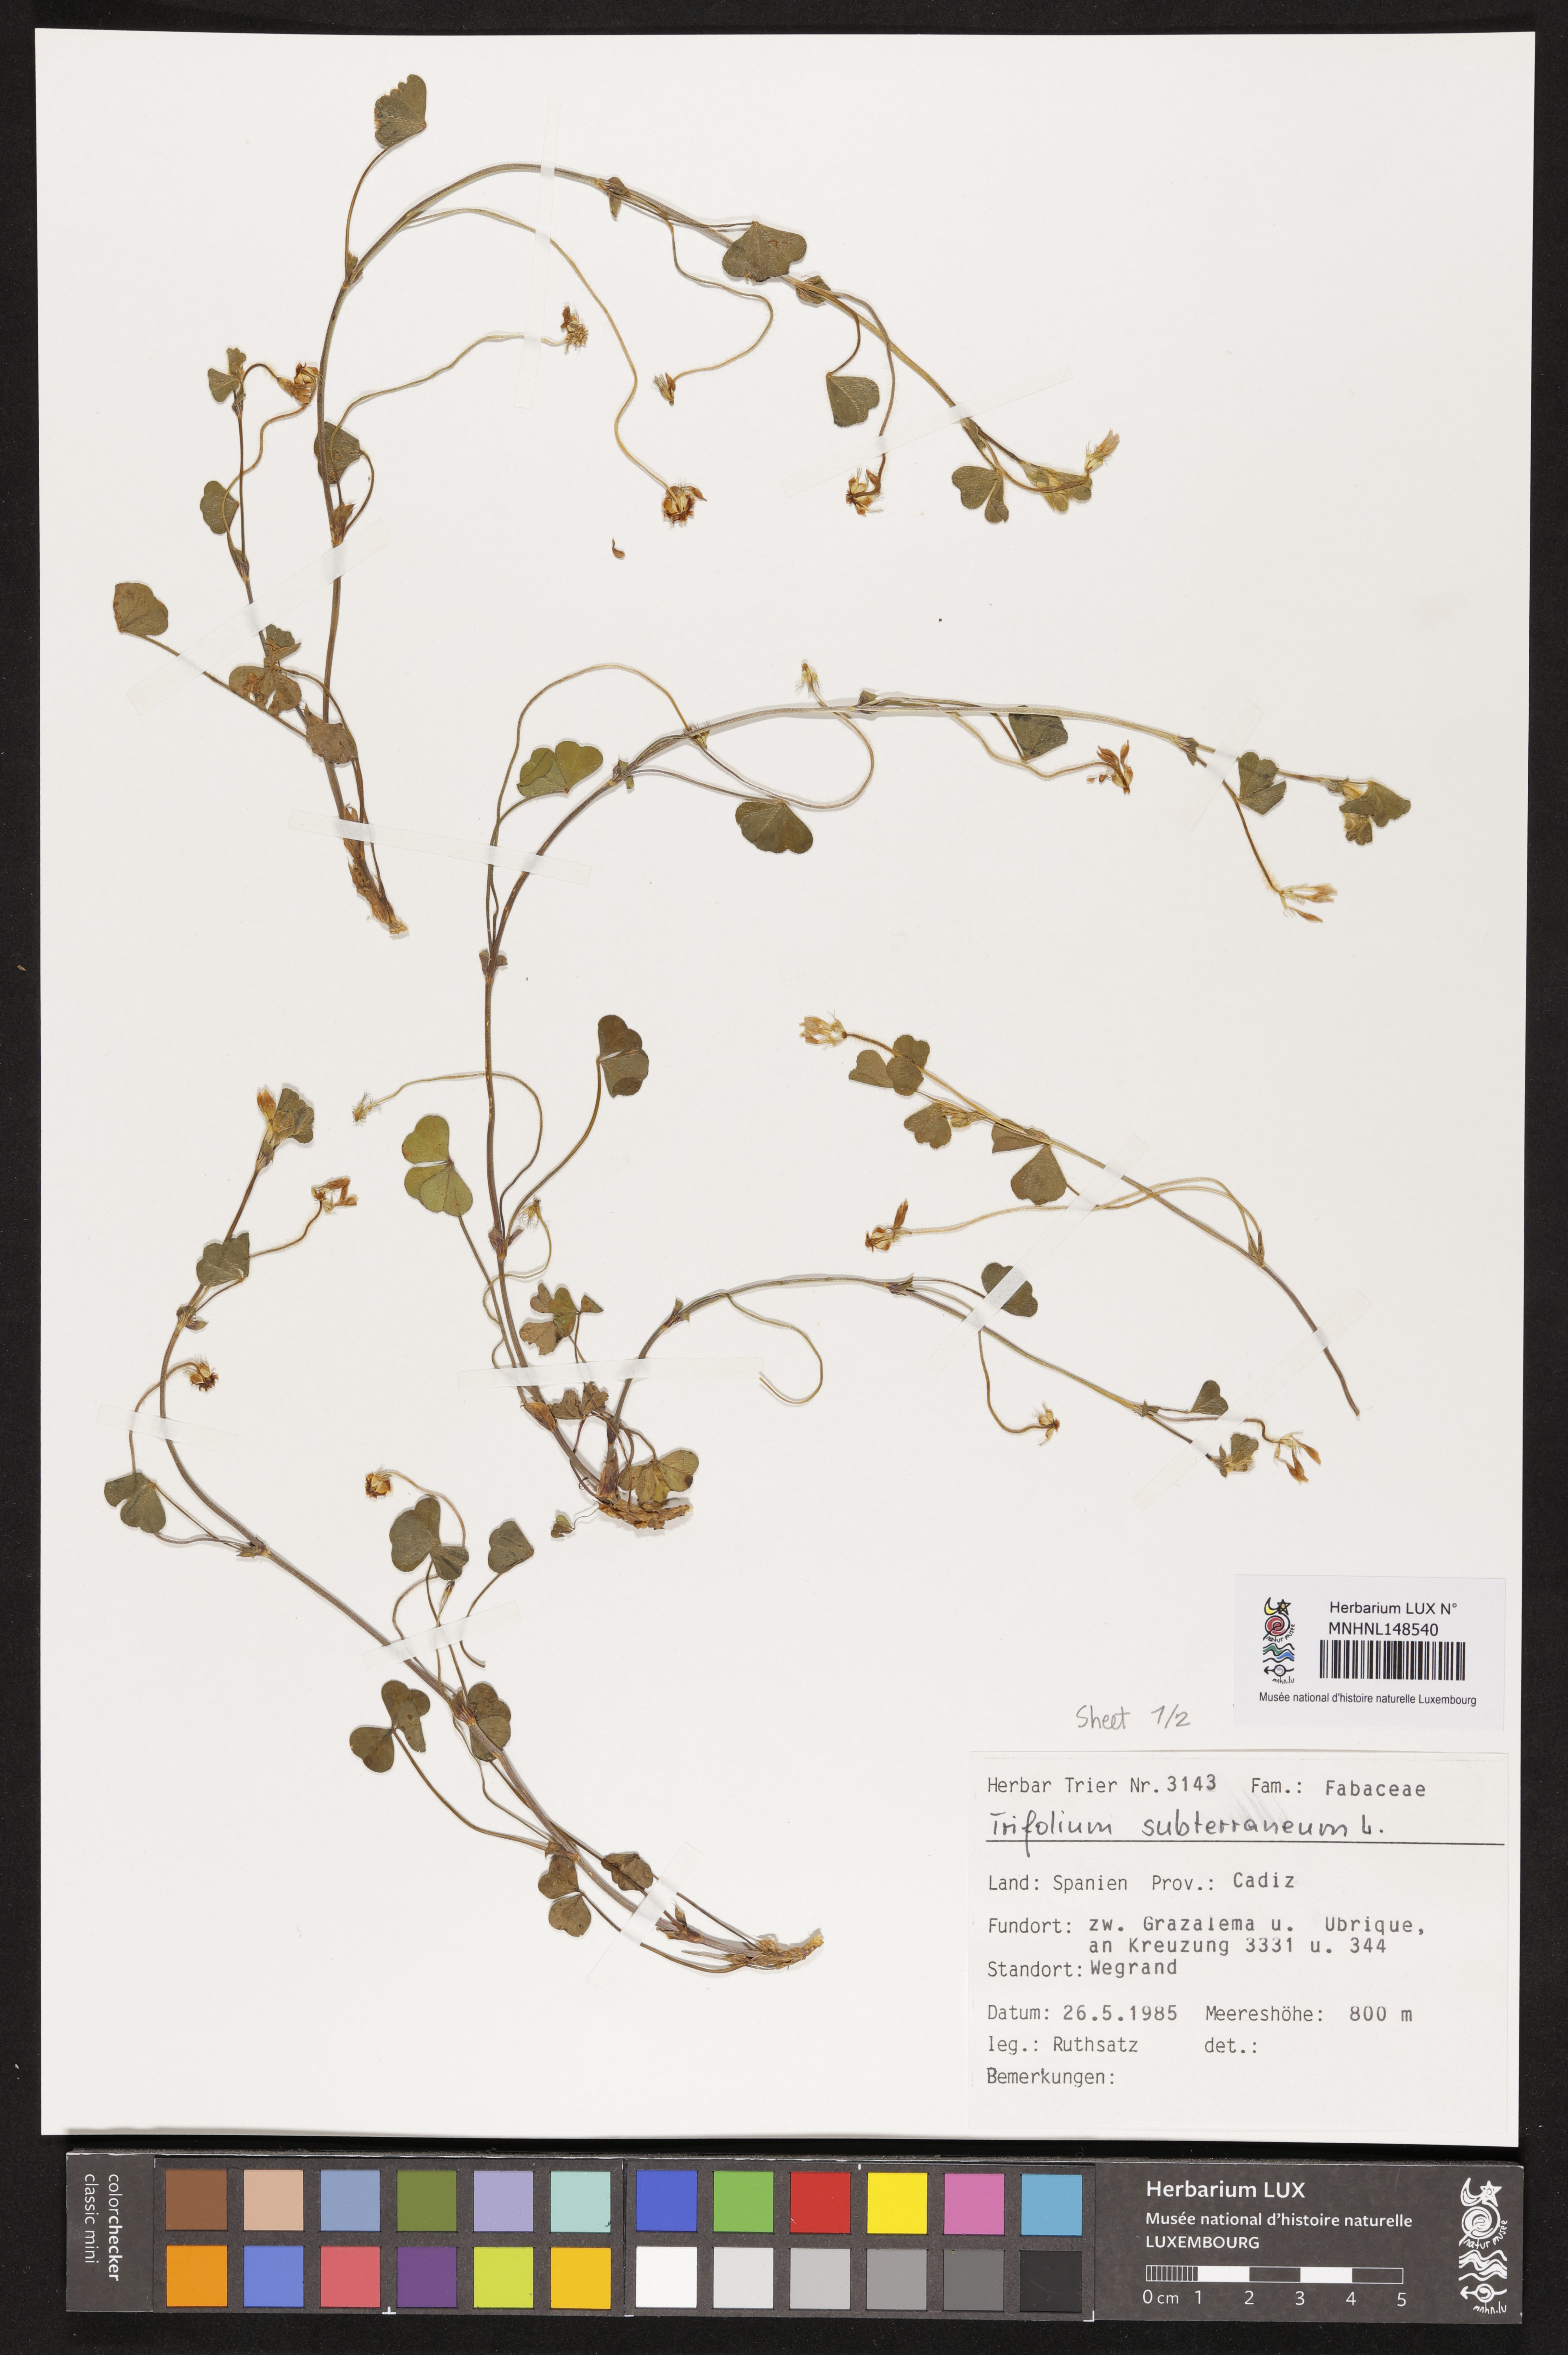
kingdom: Plantae
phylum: Tracheophyta
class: Magnoliopsida
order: Fabales
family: Fabaceae
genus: Trifolium
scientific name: Trifolium subterraneum
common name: Subterranean clover
